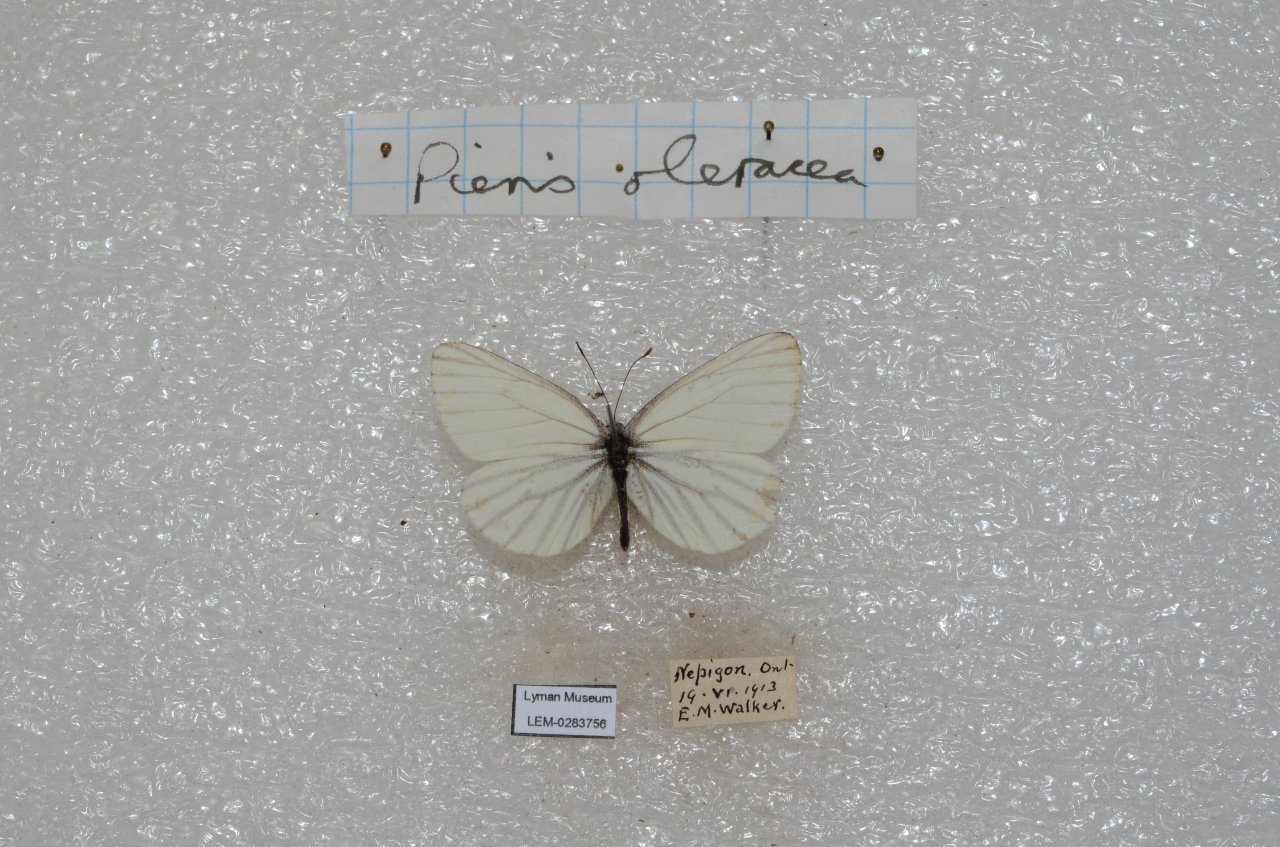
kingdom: Animalia
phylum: Arthropoda
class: Insecta
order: Lepidoptera
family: Pieridae
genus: Pieris
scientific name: Pieris oleracea
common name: Mustard White
